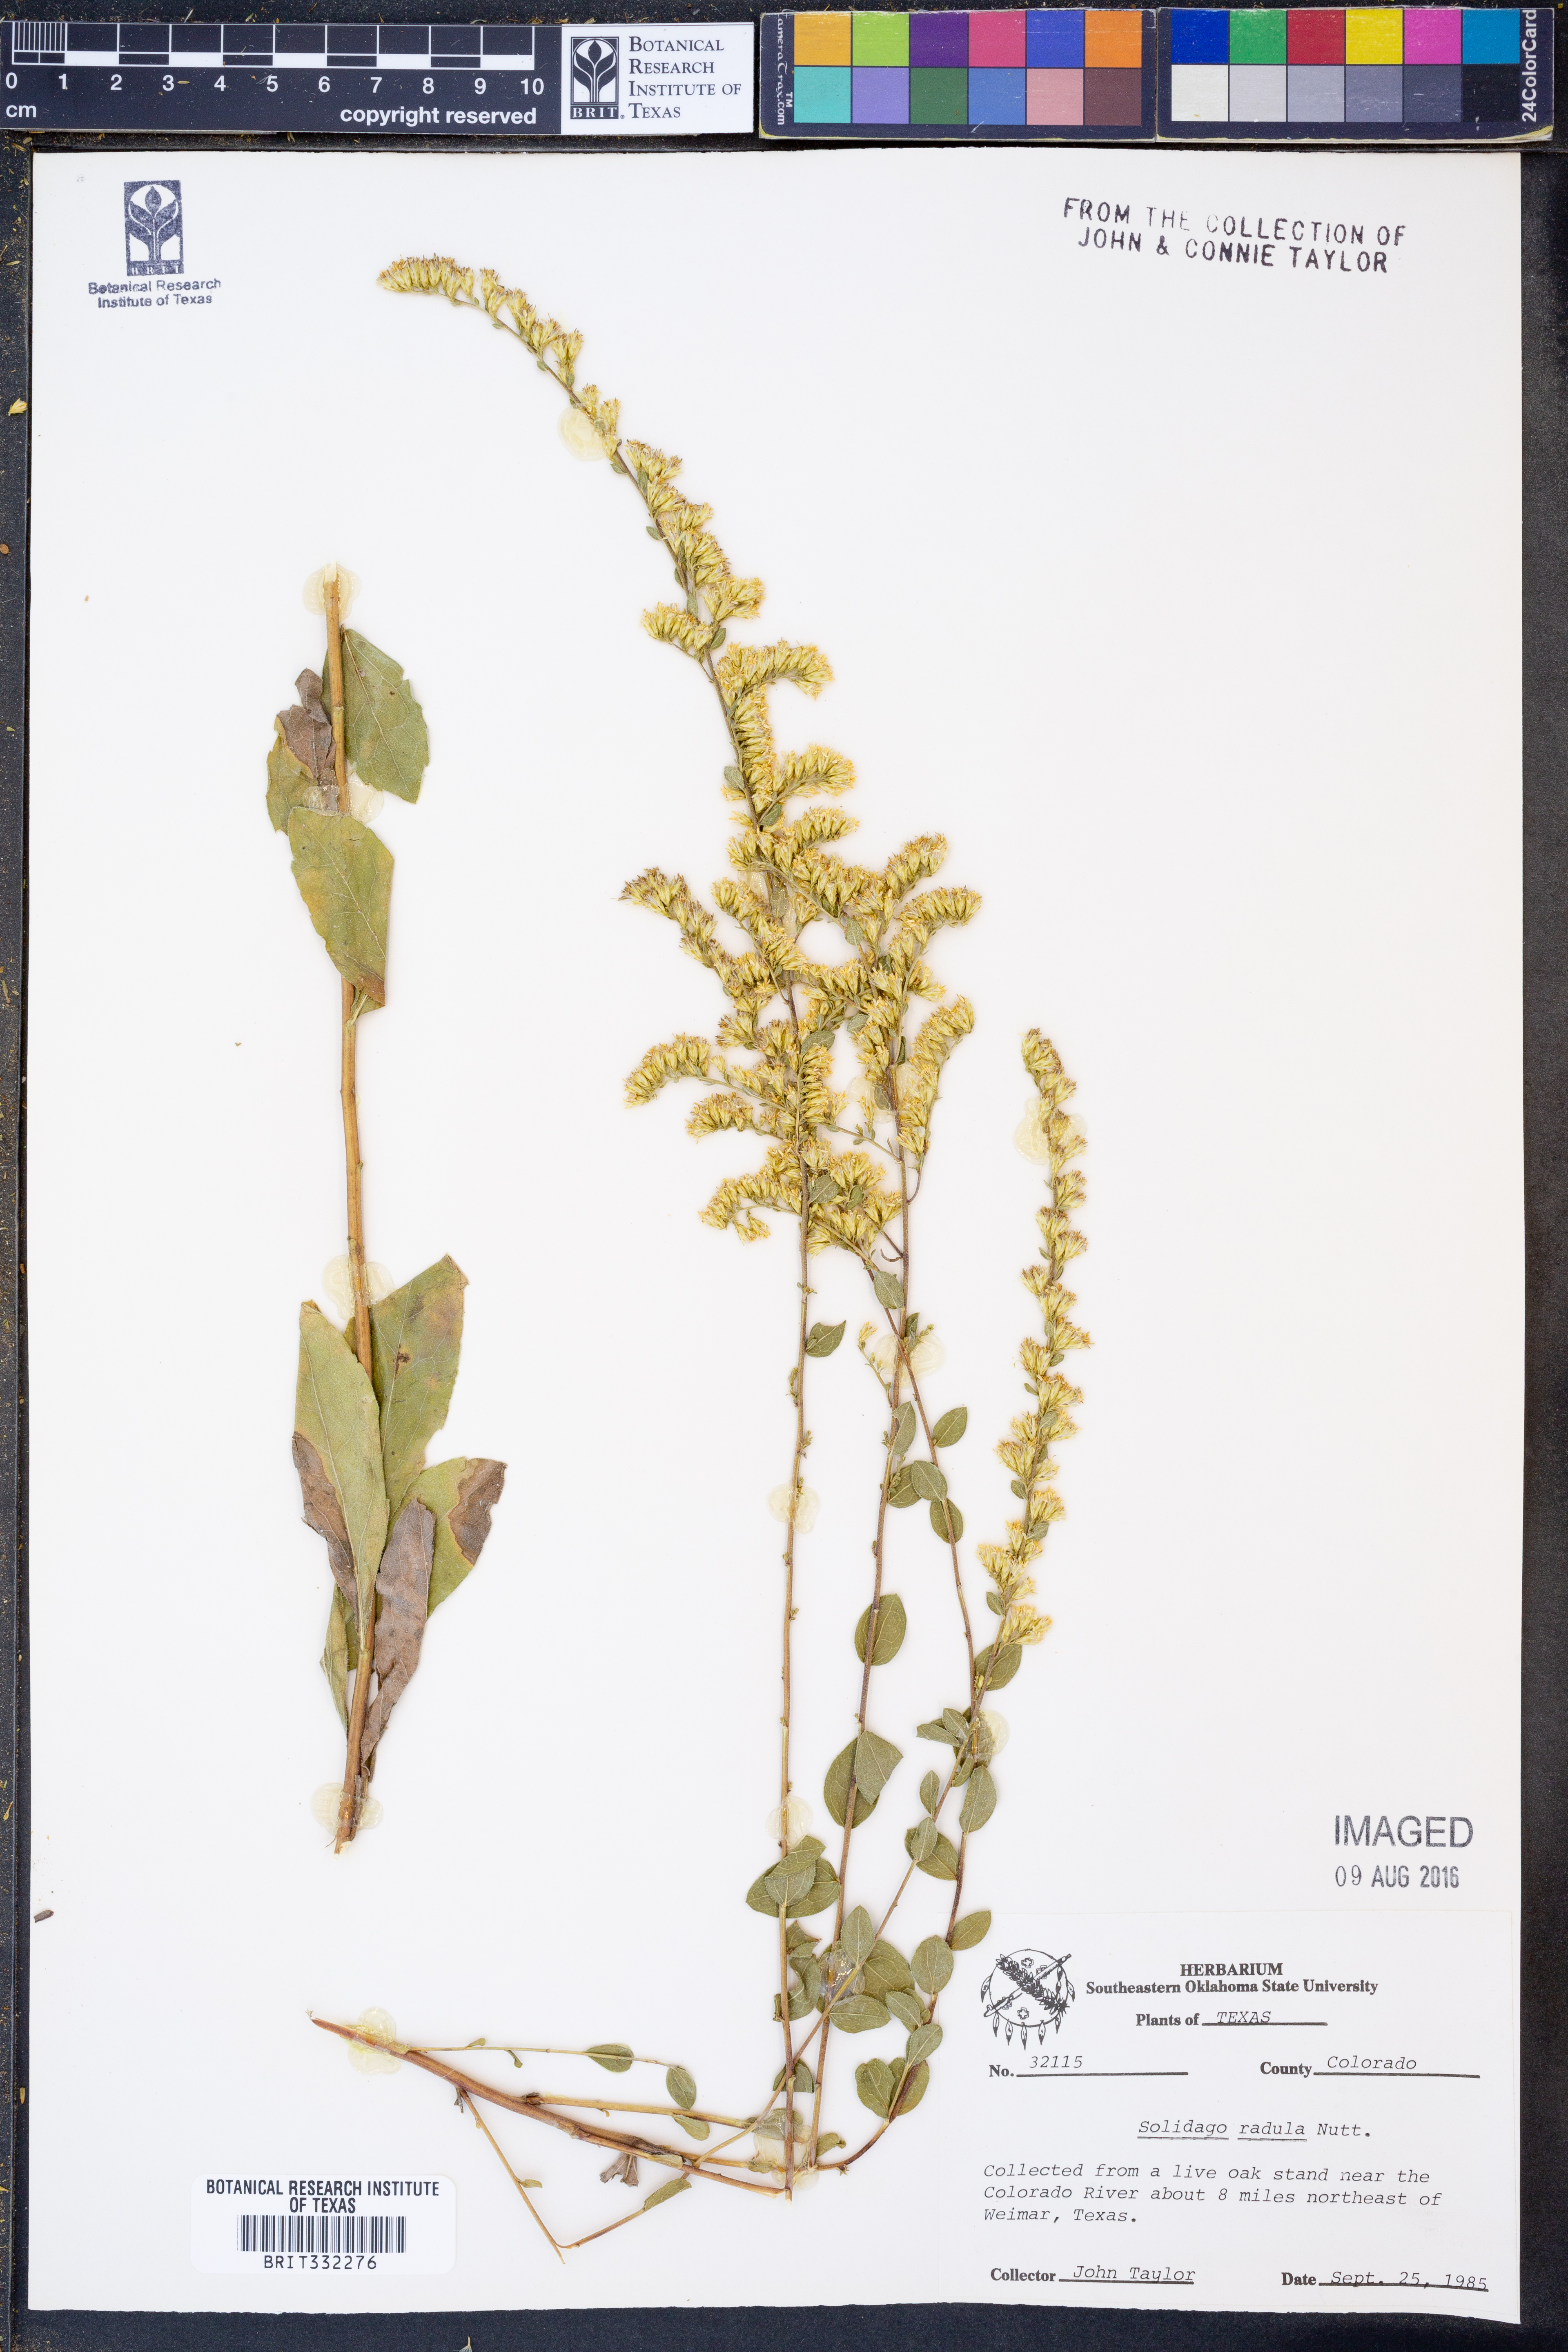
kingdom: Plantae
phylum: Tracheophyta
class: Magnoliopsida
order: Asterales
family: Asteraceae
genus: Solidago
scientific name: Solidago radula
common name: Western rough goldenrod
